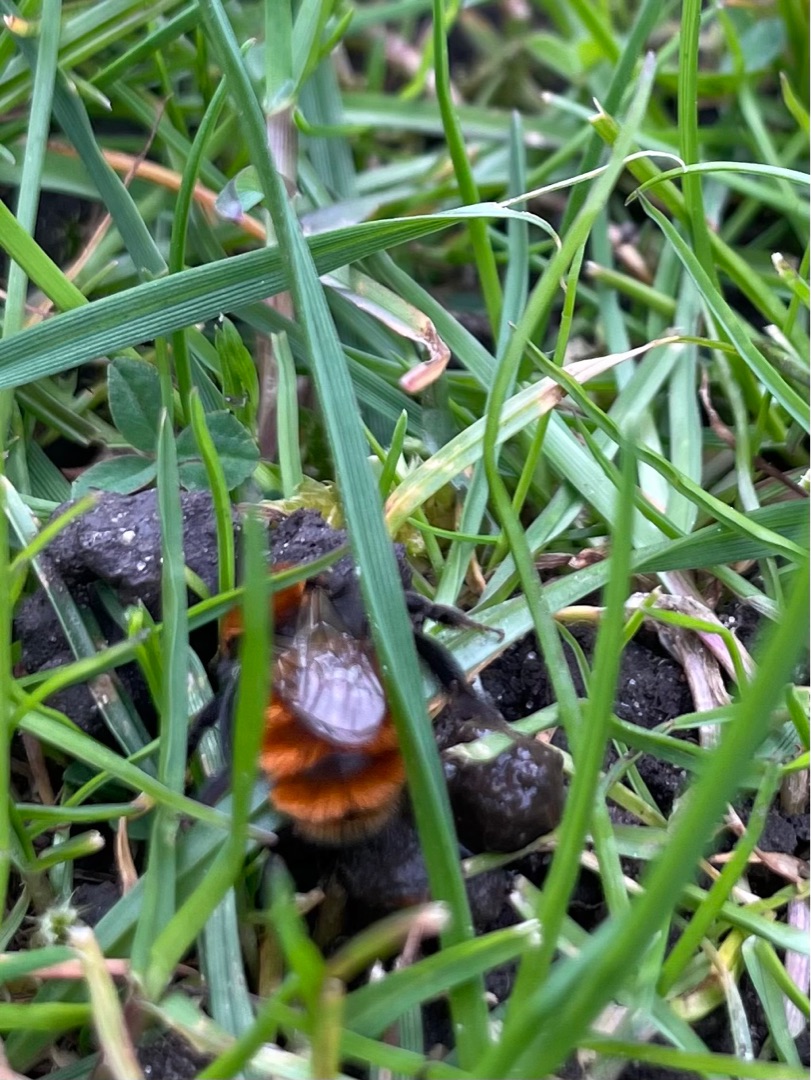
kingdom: Animalia
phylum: Arthropoda
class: Insecta
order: Hymenoptera
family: Andrenidae
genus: Andrena
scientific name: Andrena fulva
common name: Rødpelset jordbi
